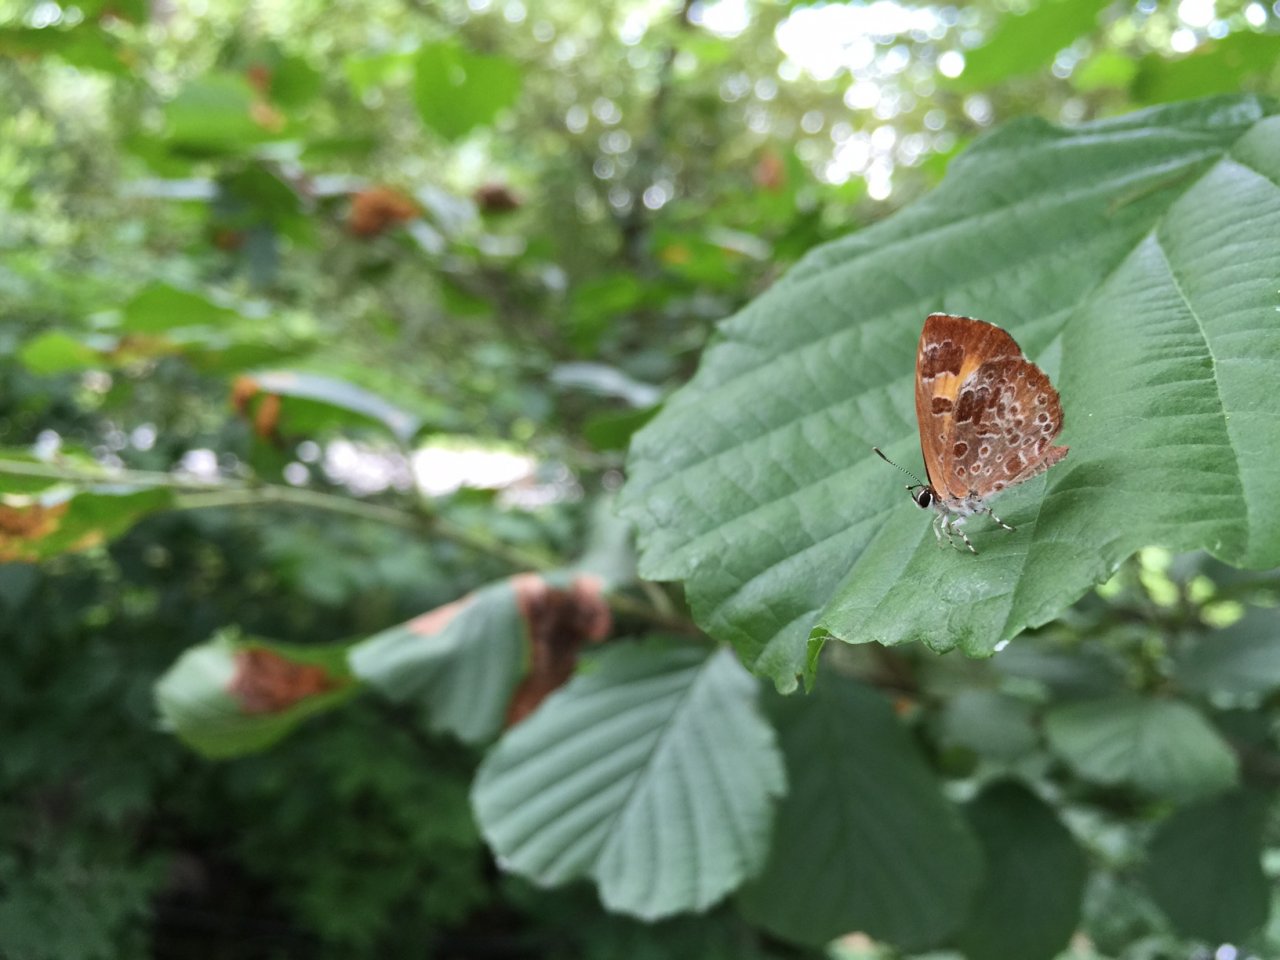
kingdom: Animalia
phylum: Arthropoda
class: Insecta
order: Lepidoptera
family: Lycaenidae
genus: Feniseca
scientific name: Feniseca tarquinius
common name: Harvester
